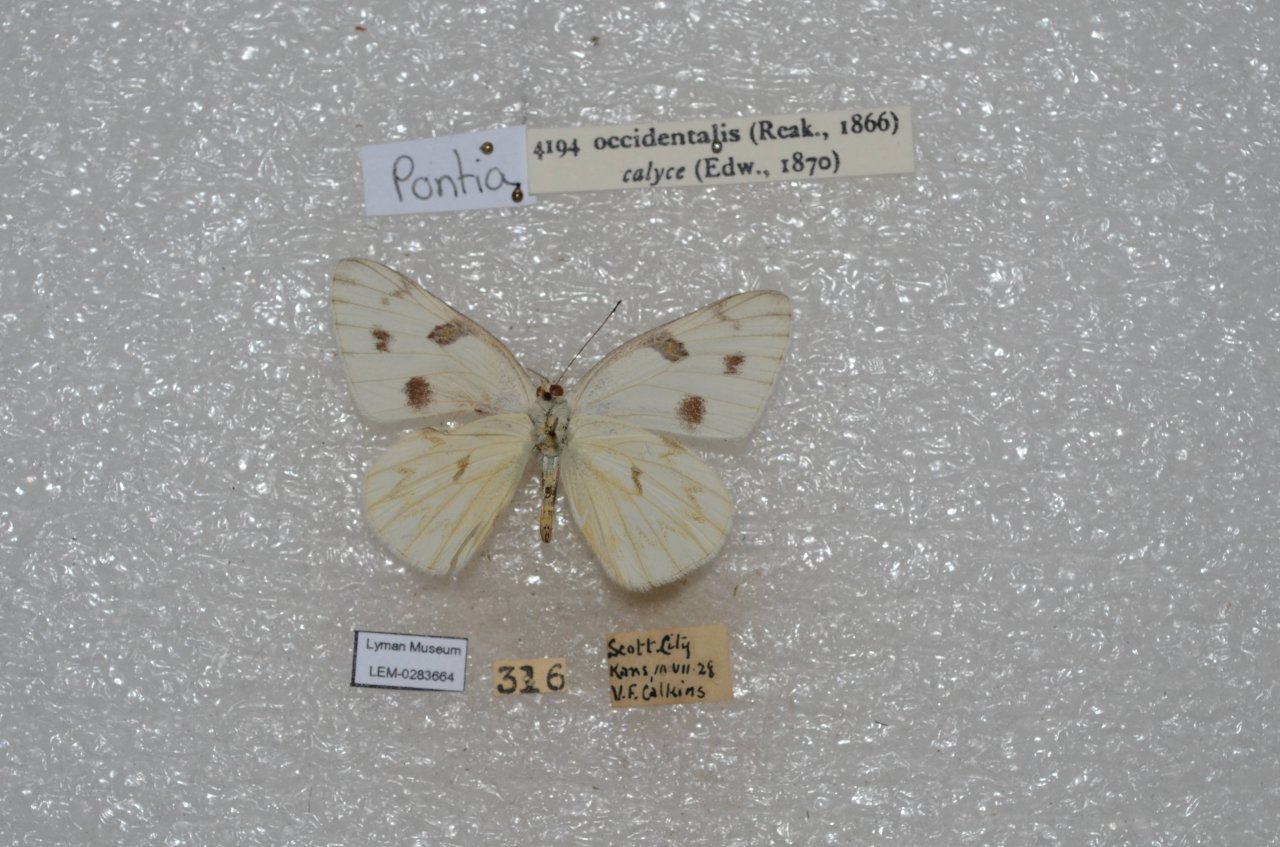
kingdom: Animalia
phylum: Arthropoda
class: Insecta
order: Lepidoptera
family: Pieridae
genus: Pontia
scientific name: Pontia occidentalis
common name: Western White
